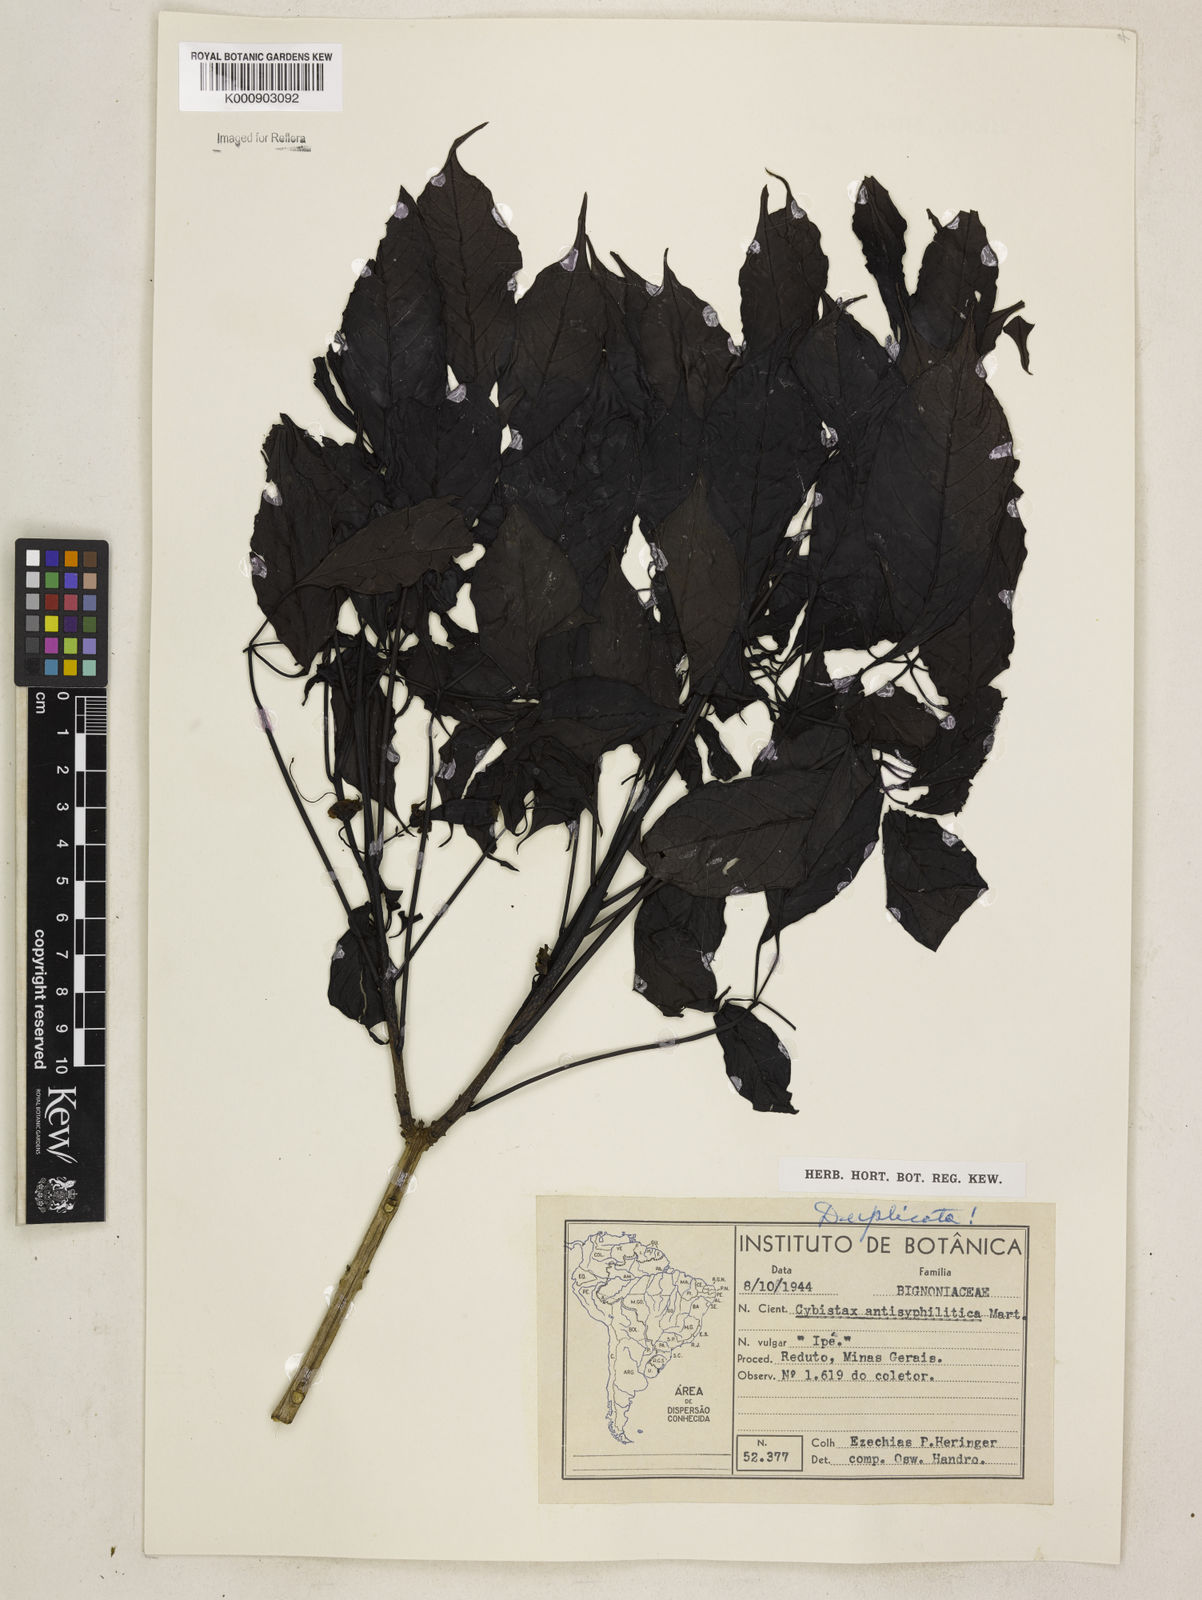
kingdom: Plantae
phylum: Tracheophyta
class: Magnoliopsida
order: Lamiales
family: Bignoniaceae
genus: Cybistax
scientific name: Cybistax antisyphilitica
